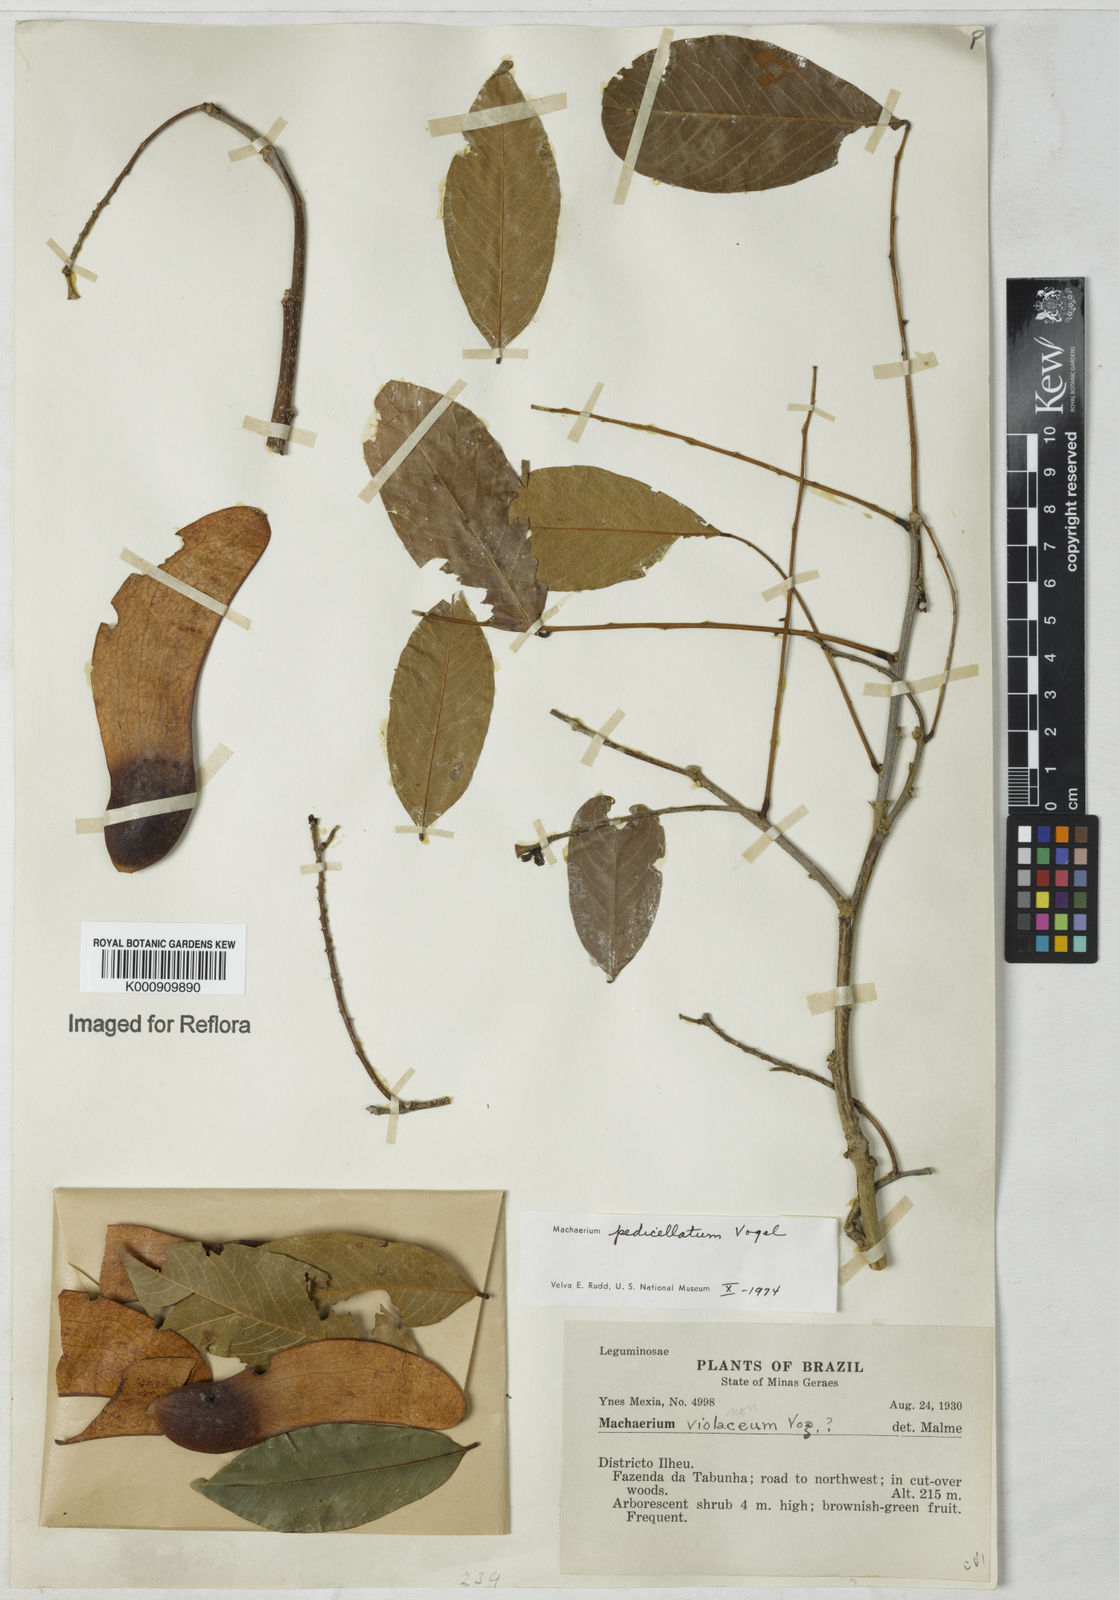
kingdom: Plantae
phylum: Tracheophyta
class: Magnoliopsida
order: Fabales
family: Fabaceae
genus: Machaerium
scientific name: Machaerium pedicellatum
